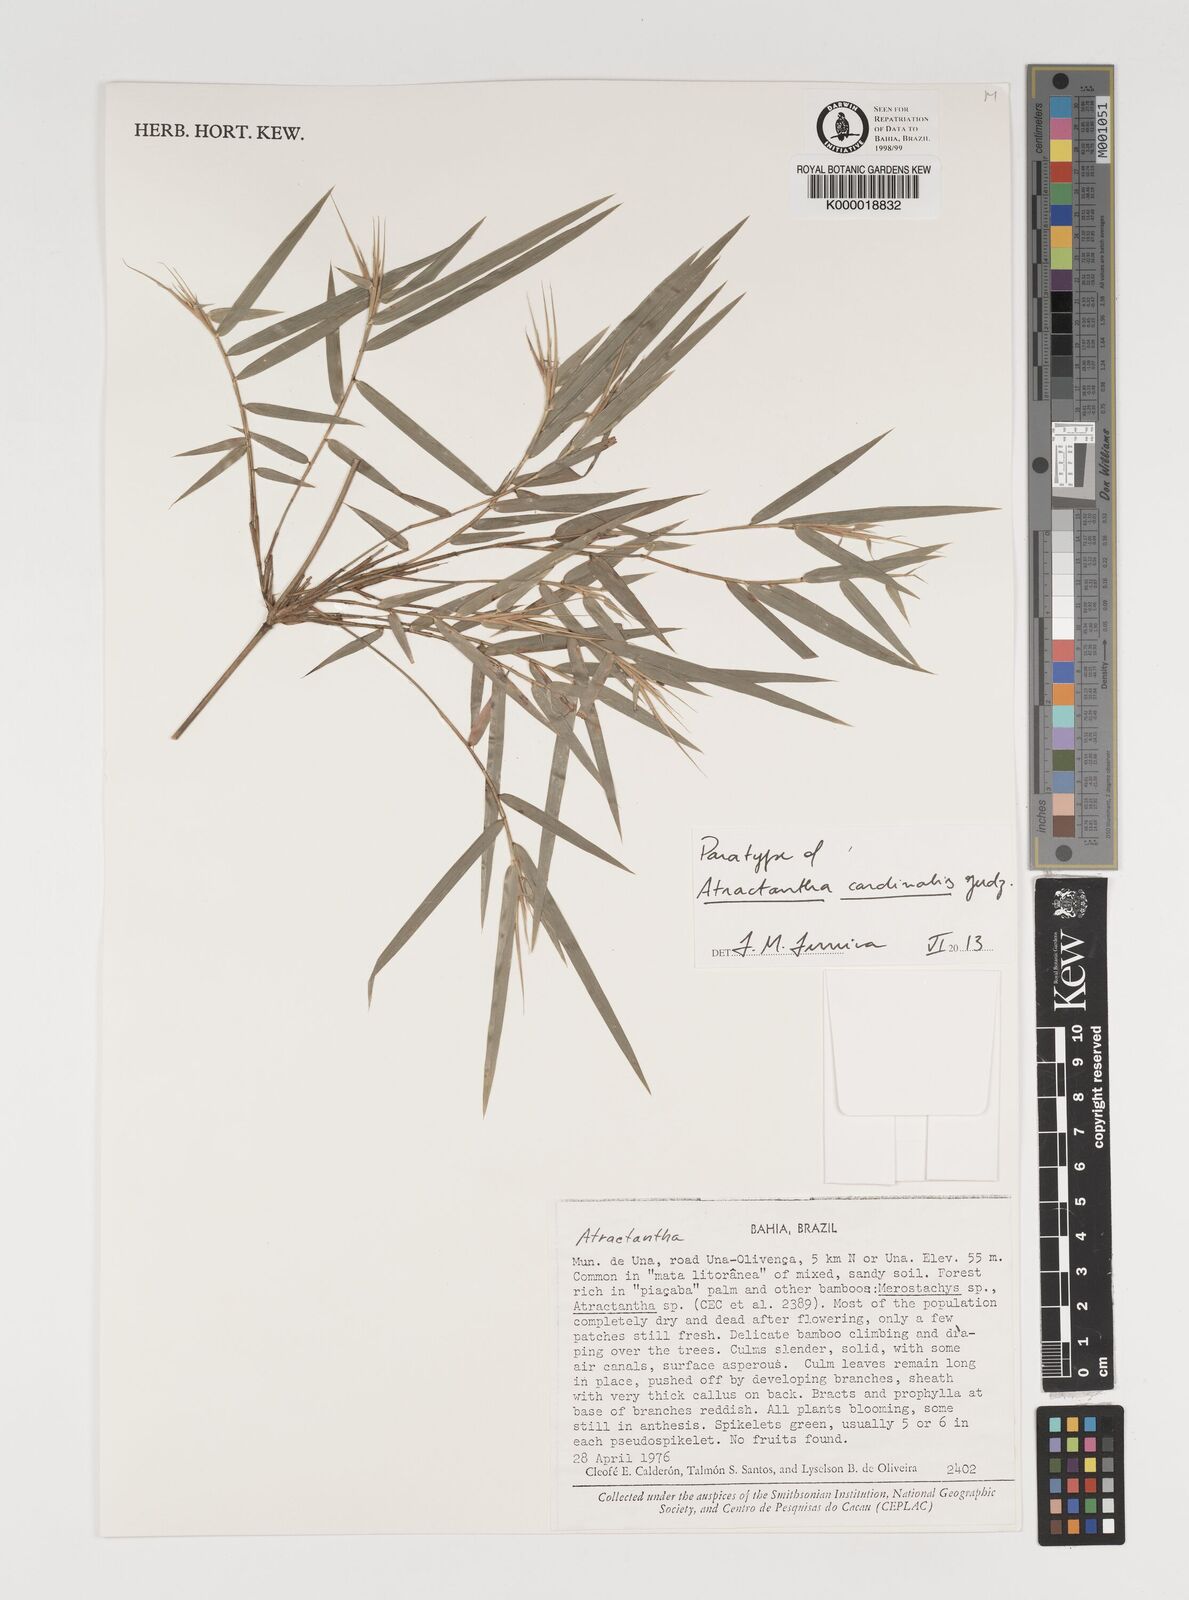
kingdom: Plantae
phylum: Tracheophyta
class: Liliopsida
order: Poales
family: Poaceae
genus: Atractantha
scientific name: Atractantha cardinalis
